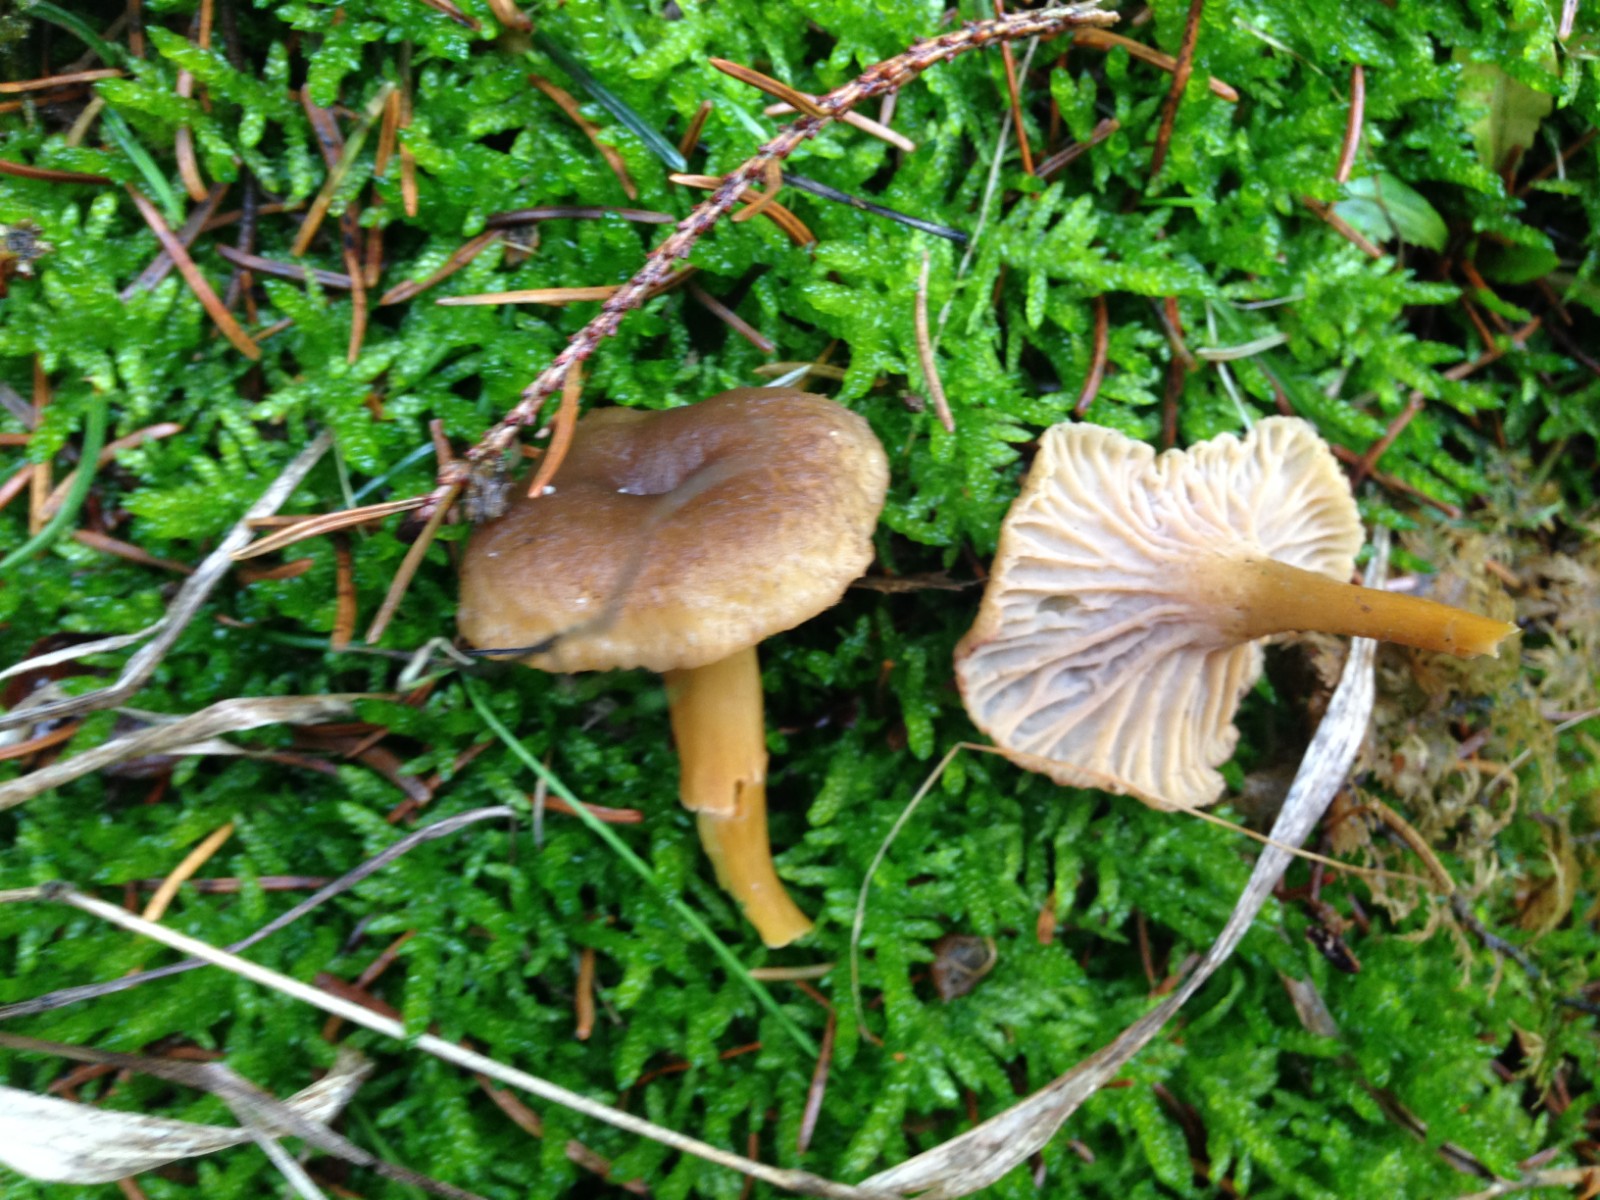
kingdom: Fungi
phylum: Basidiomycota
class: Agaricomycetes
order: Cantharellales
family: Hydnaceae
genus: Craterellus
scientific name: Craterellus tubaeformis
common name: tragt-kantarel
